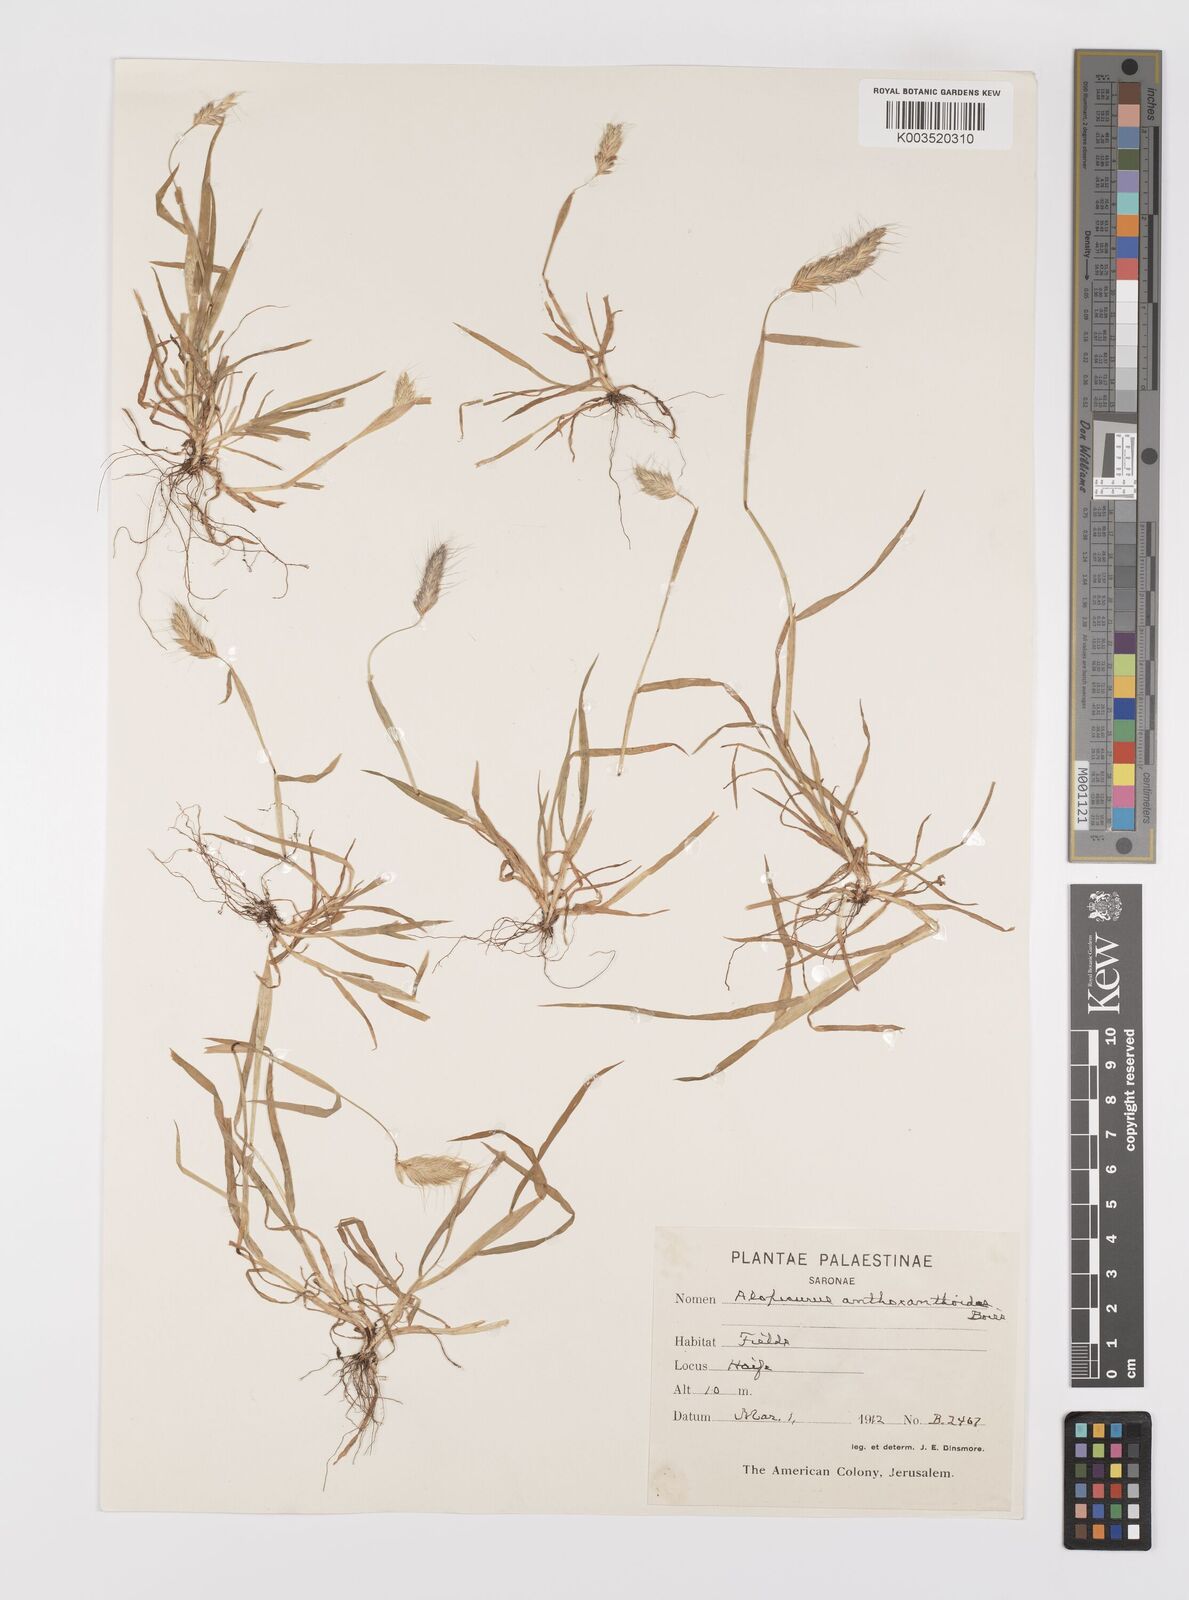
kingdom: Plantae
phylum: Tracheophyta
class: Liliopsida
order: Poales
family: Poaceae
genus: Alopecurus
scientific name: Alopecurus utriculatus
